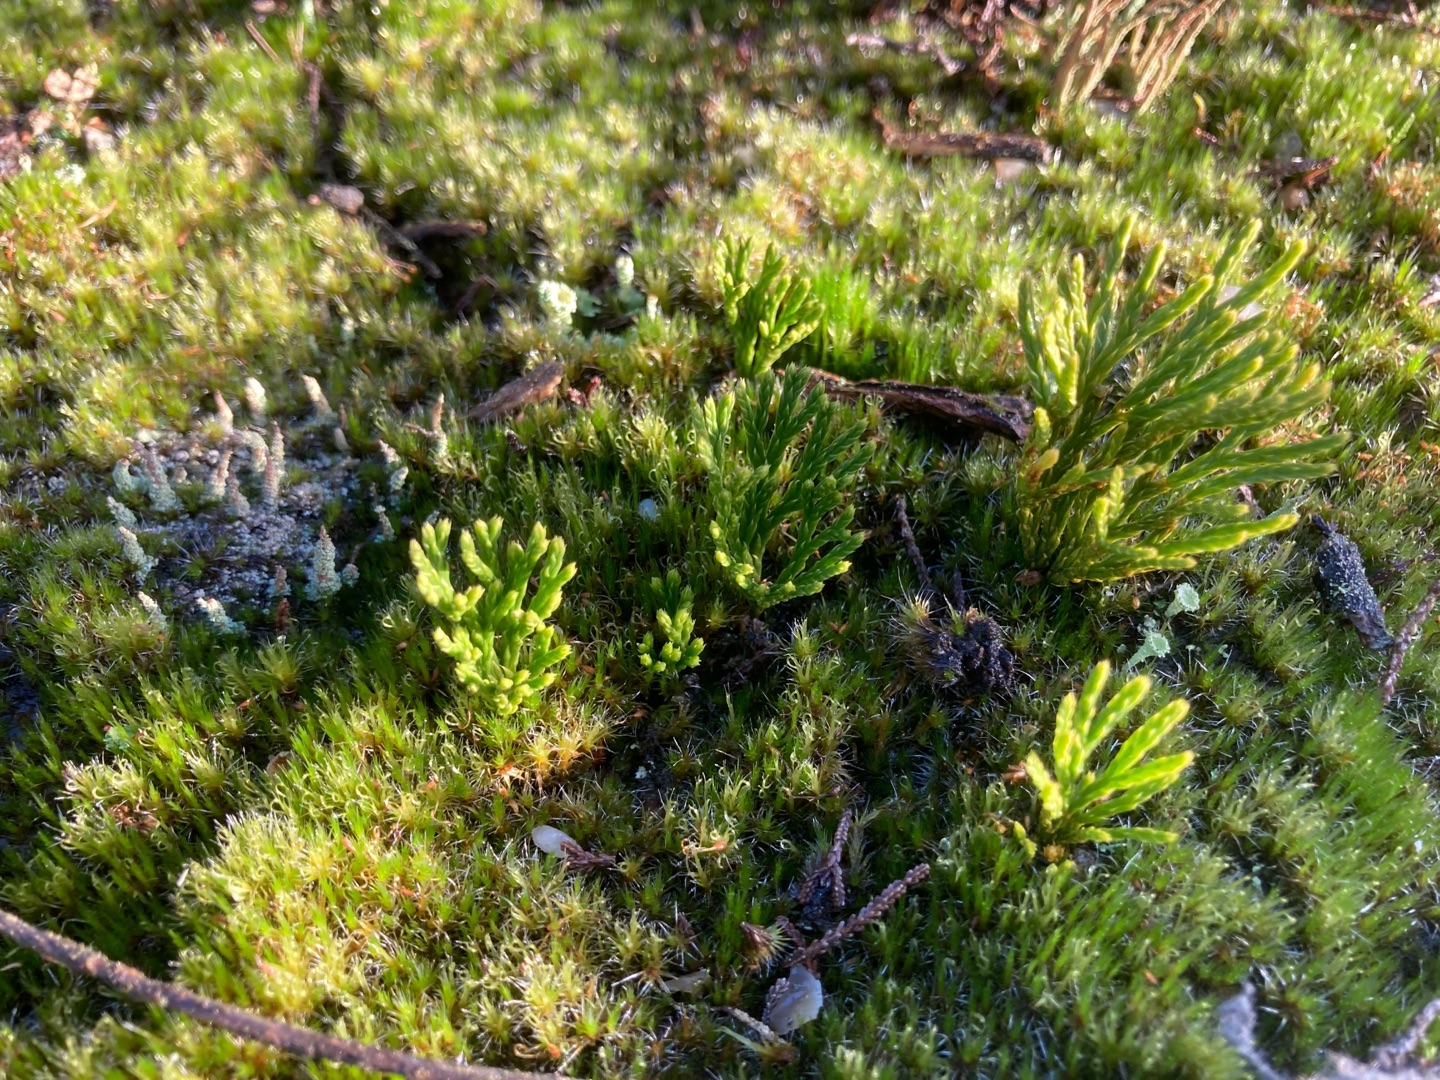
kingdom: Plantae
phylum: Tracheophyta
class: Lycopodiopsida
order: Lycopodiales
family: Lycopodiaceae
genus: Diphasiastrum
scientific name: Diphasiastrum tristachyum
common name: Cypres-ulvefod
